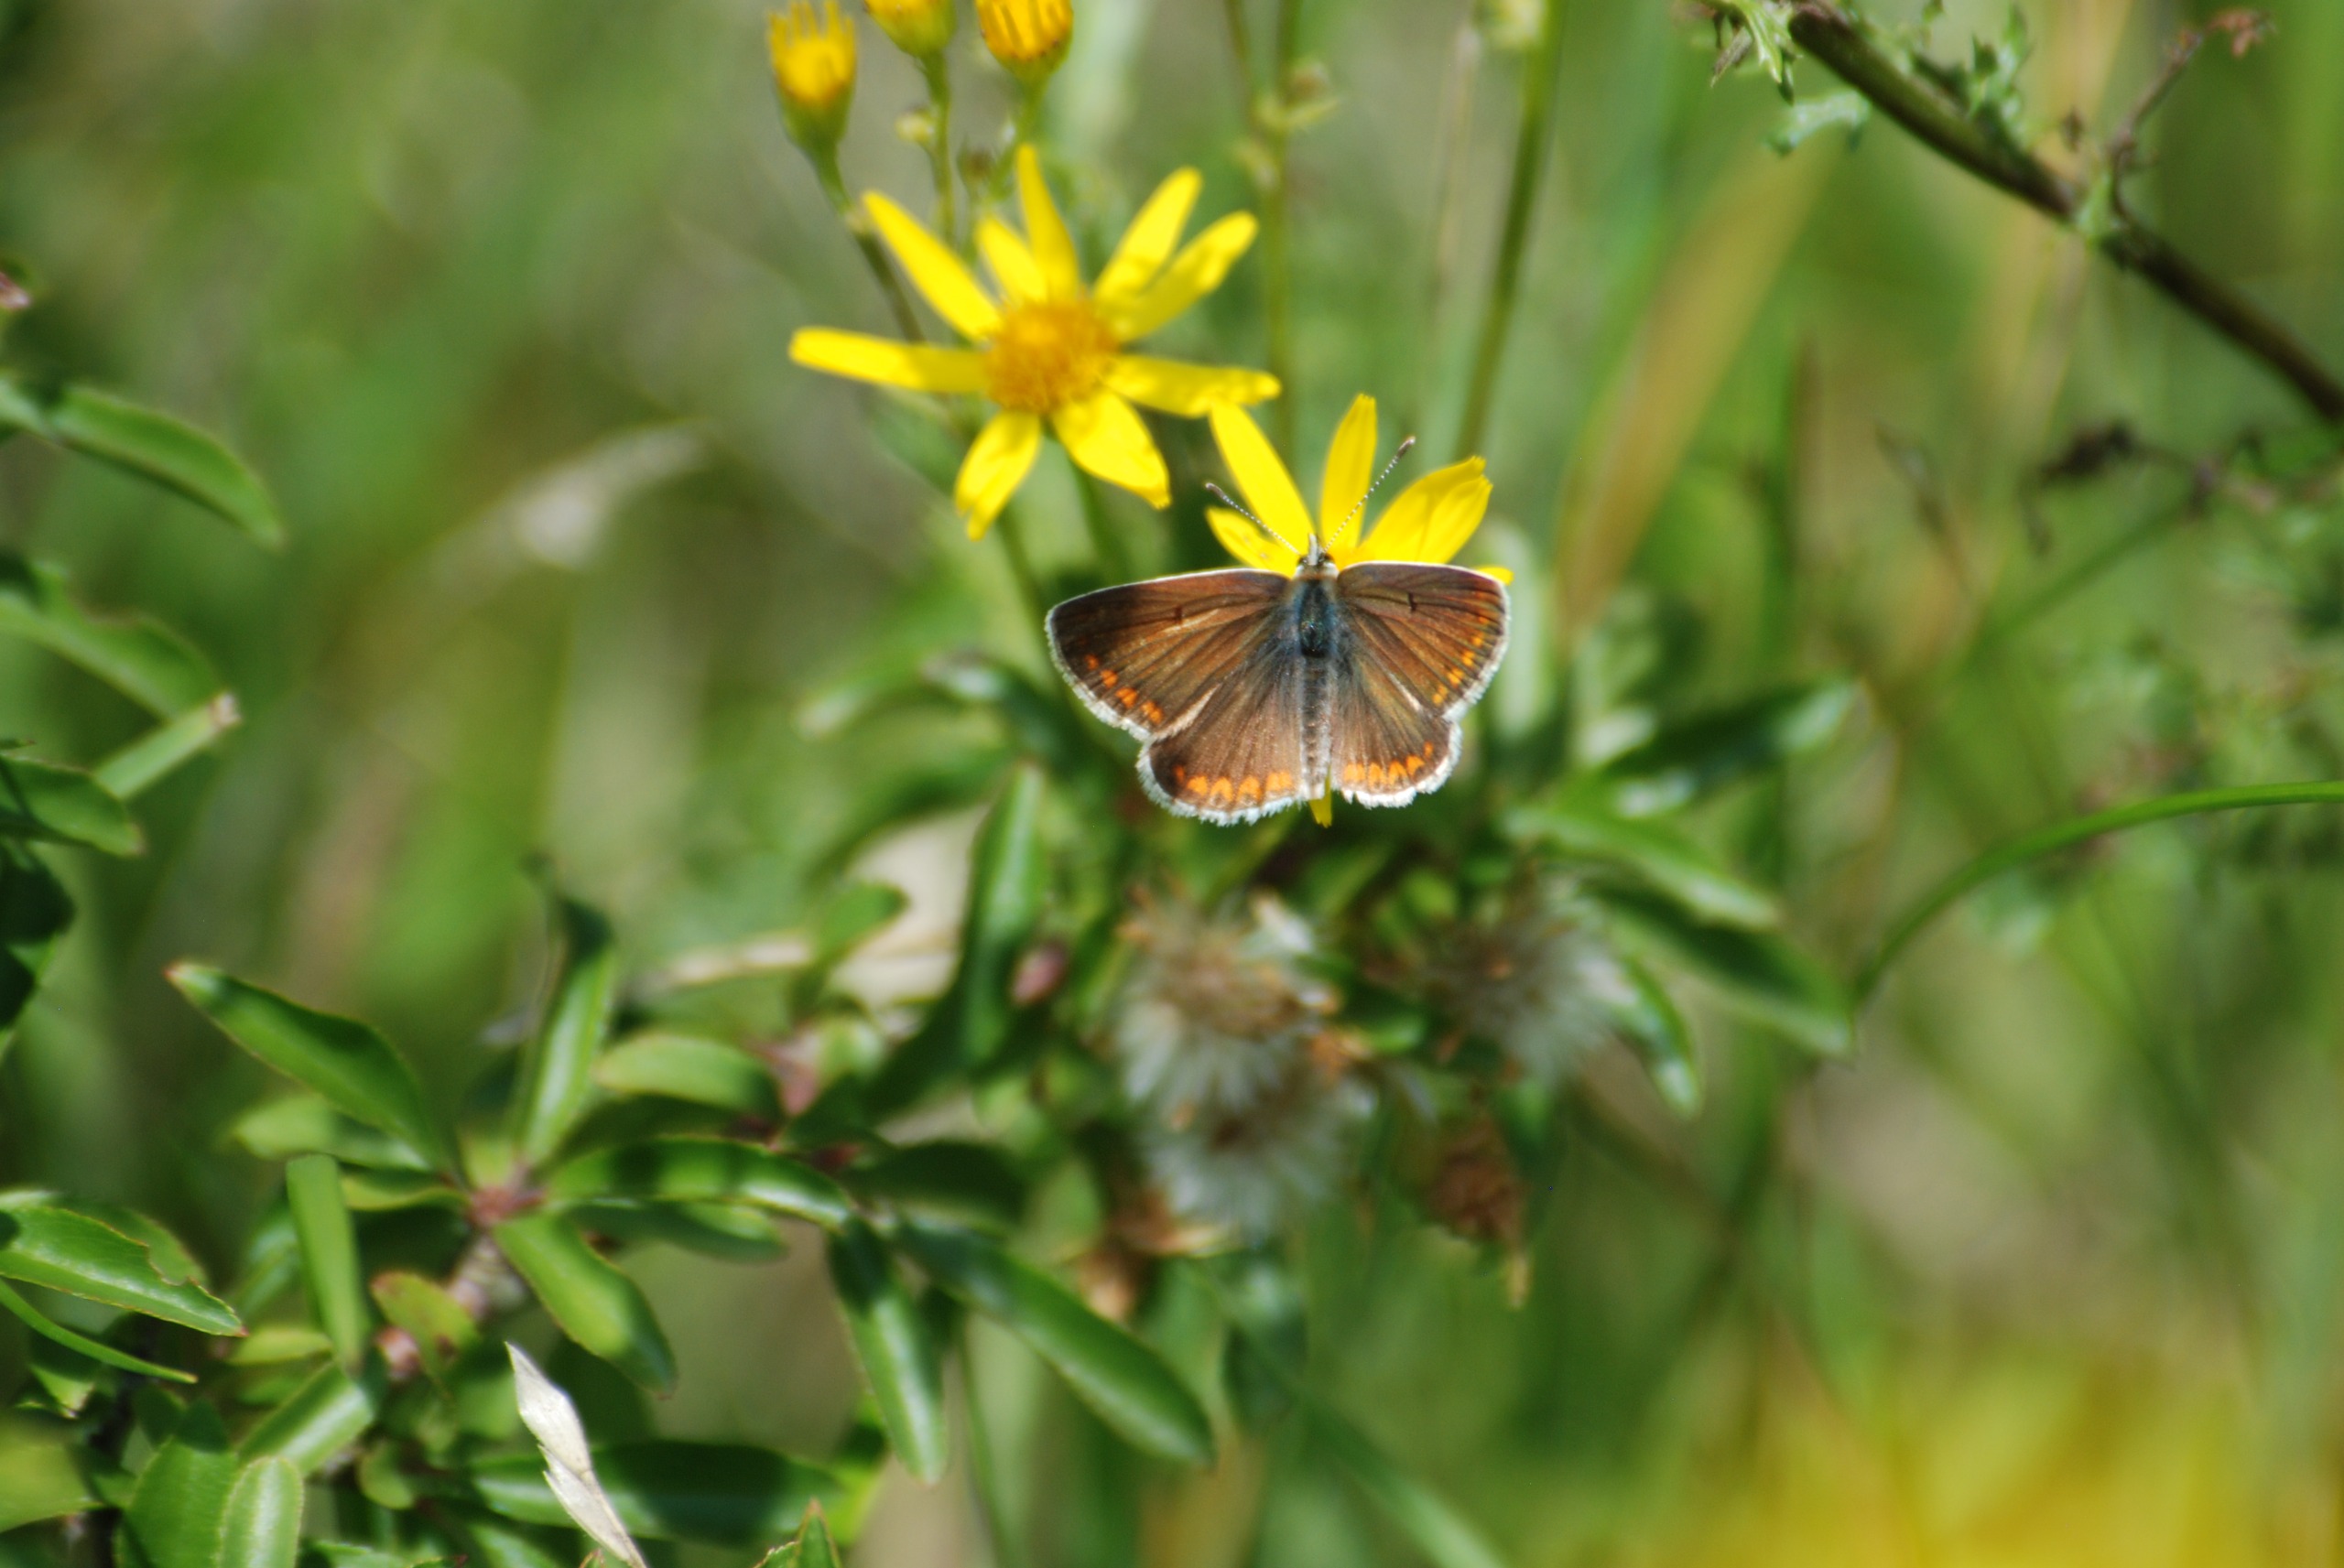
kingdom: Animalia
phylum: Arthropoda
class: Insecta
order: Lepidoptera
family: Lycaenidae
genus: Aricia
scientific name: Aricia agestis
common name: Rødplettet blåfugl
